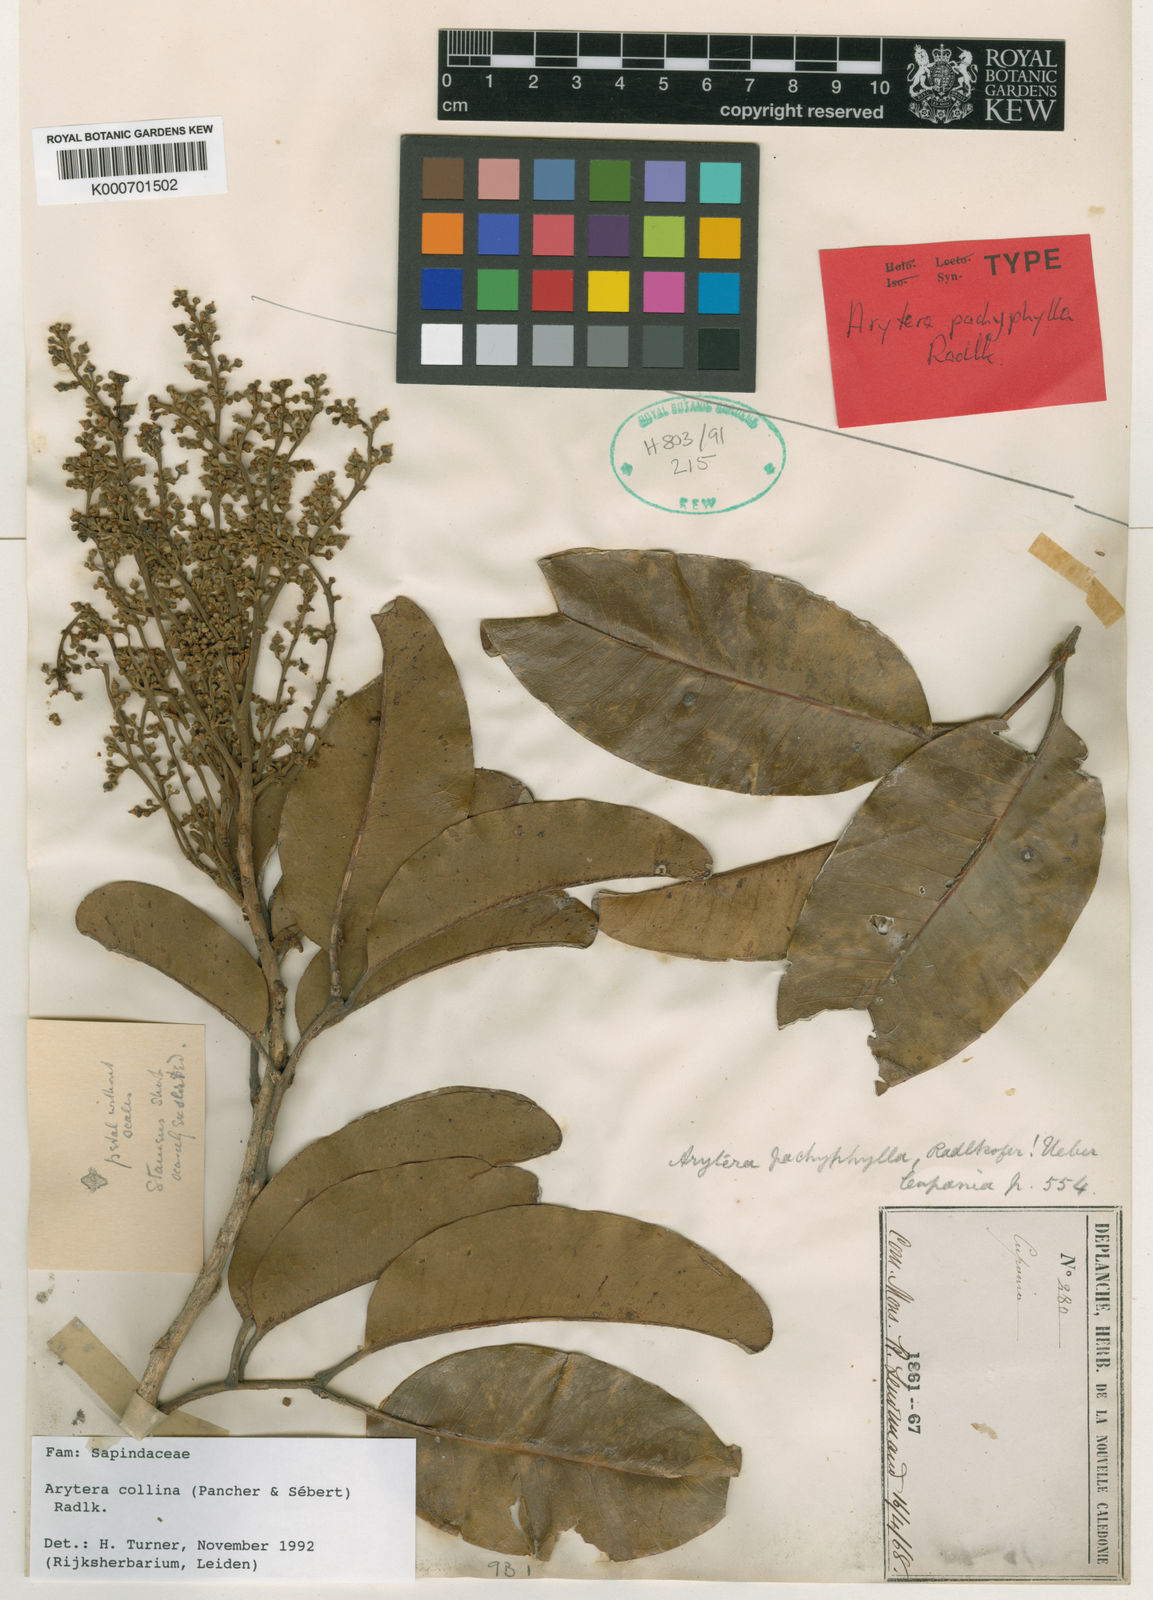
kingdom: Plantae
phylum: Tracheophyta
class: Magnoliopsida
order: Sapindales
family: Sapindaceae
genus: Arytera
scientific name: Arytera
